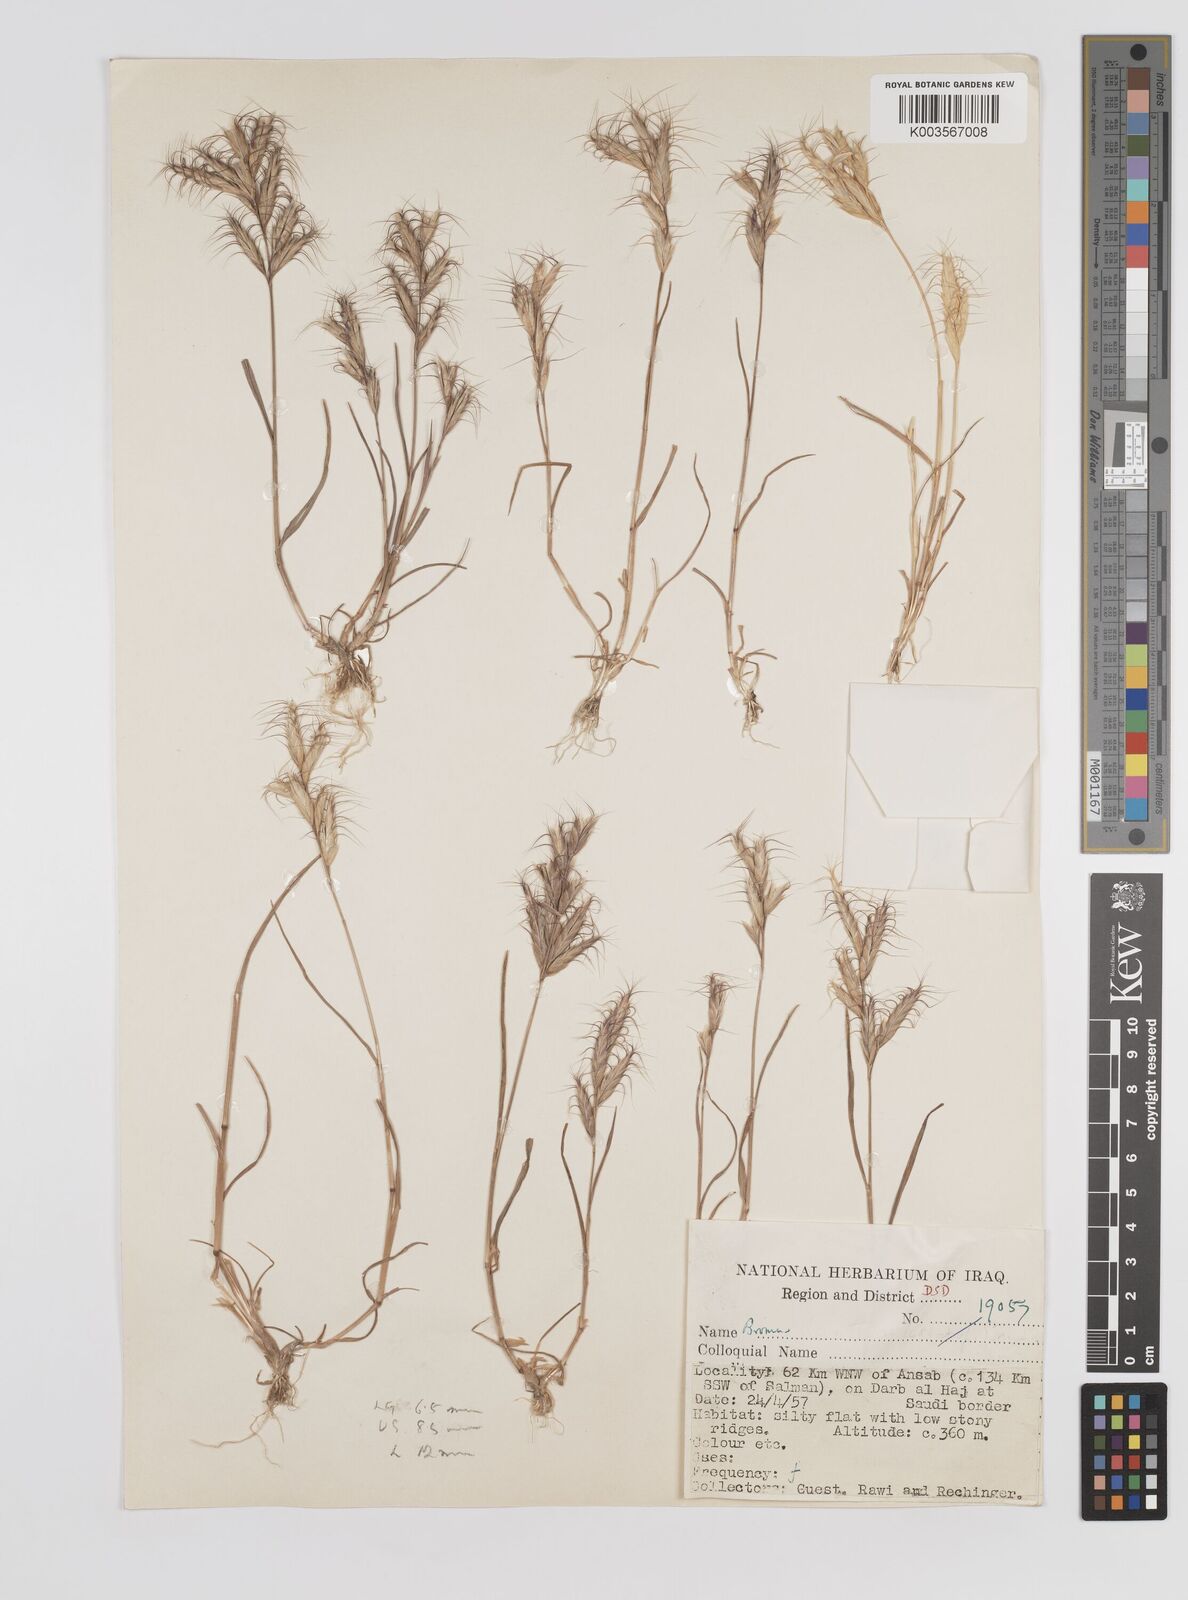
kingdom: Plantae
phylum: Tracheophyta
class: Liliopsida
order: Poales
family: Poaceae
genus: Bromus
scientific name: Bromus danthoniae
